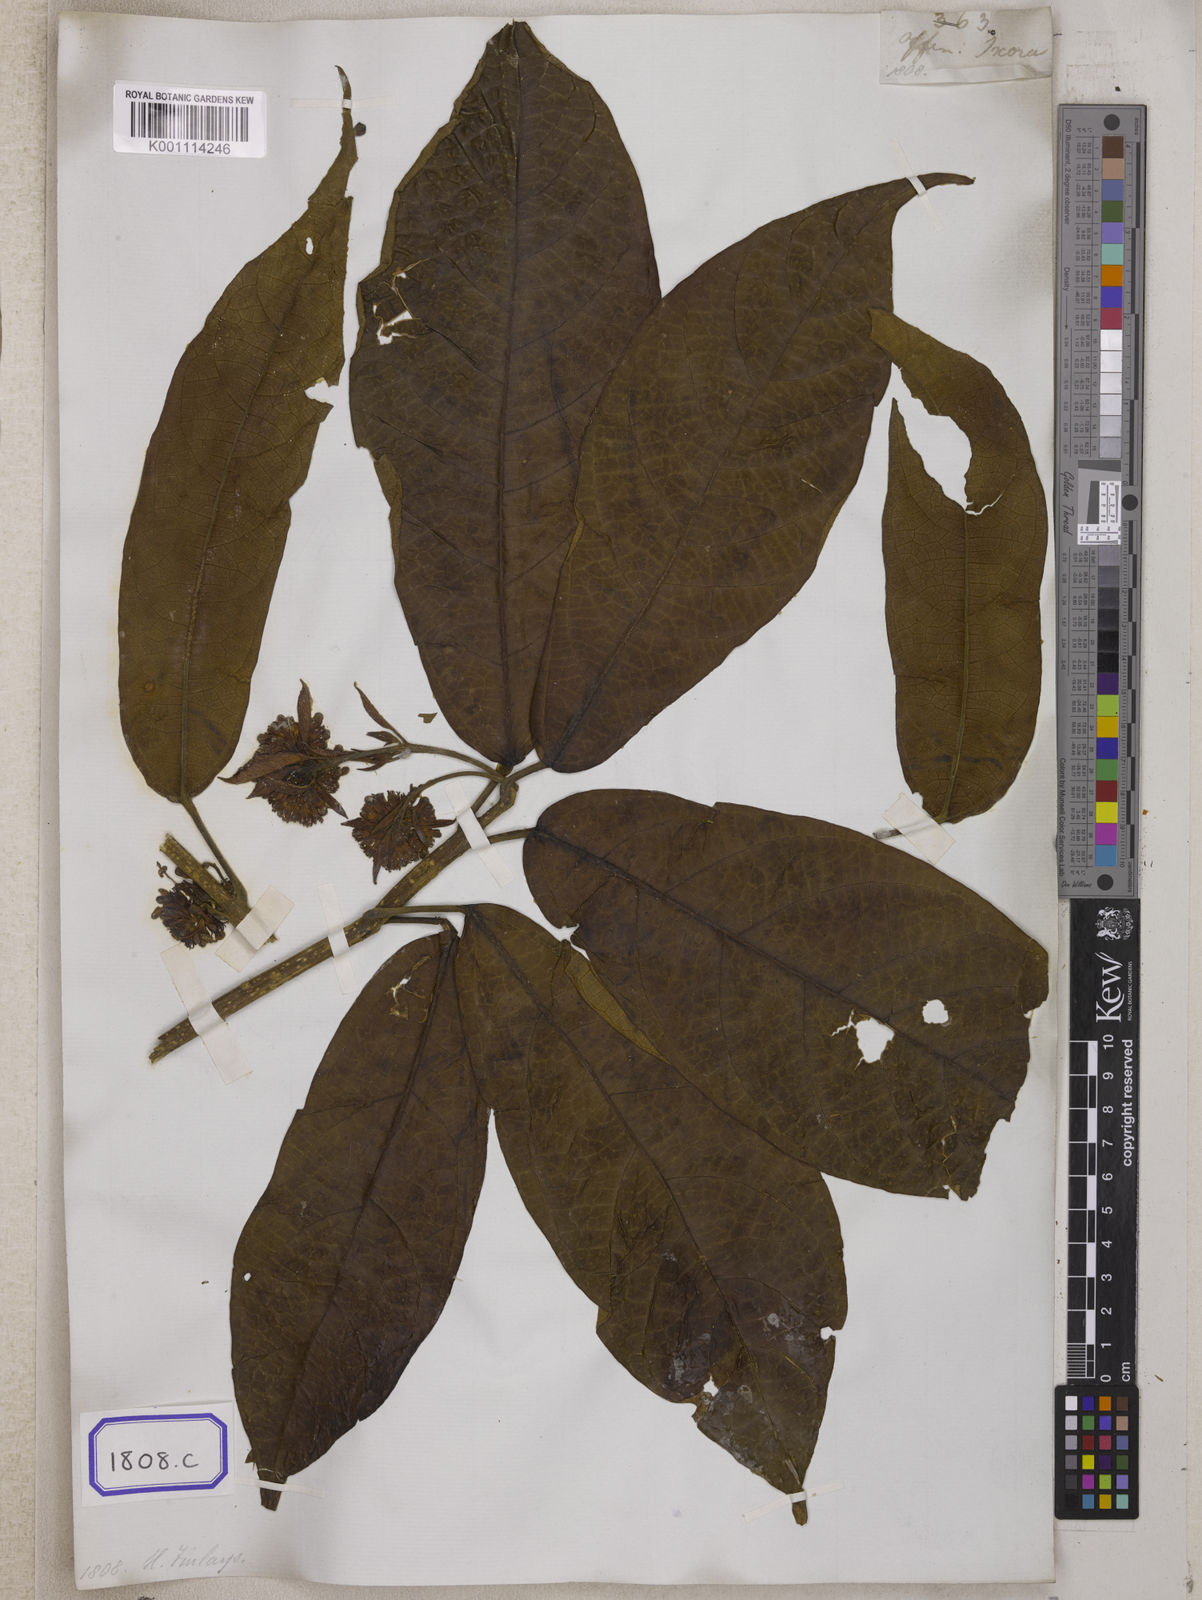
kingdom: Plantae
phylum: Tracheophyta
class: Magnoliopsida
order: Lamiales
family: Lamiaceae
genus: Clerodendrum
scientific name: Clerodendrum deflexum
